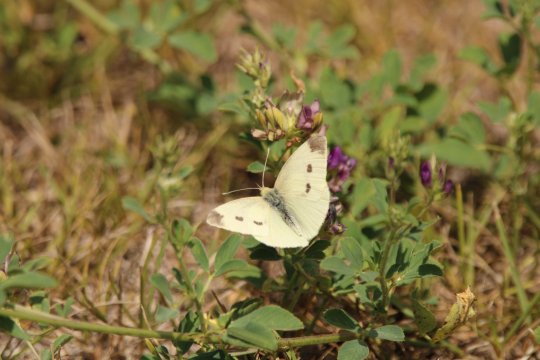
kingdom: Animalia
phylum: Arthropoda
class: Insecta
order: Lepidoptera
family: Pieridae
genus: Pieris
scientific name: Pieris rapae
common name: Cabbage White
